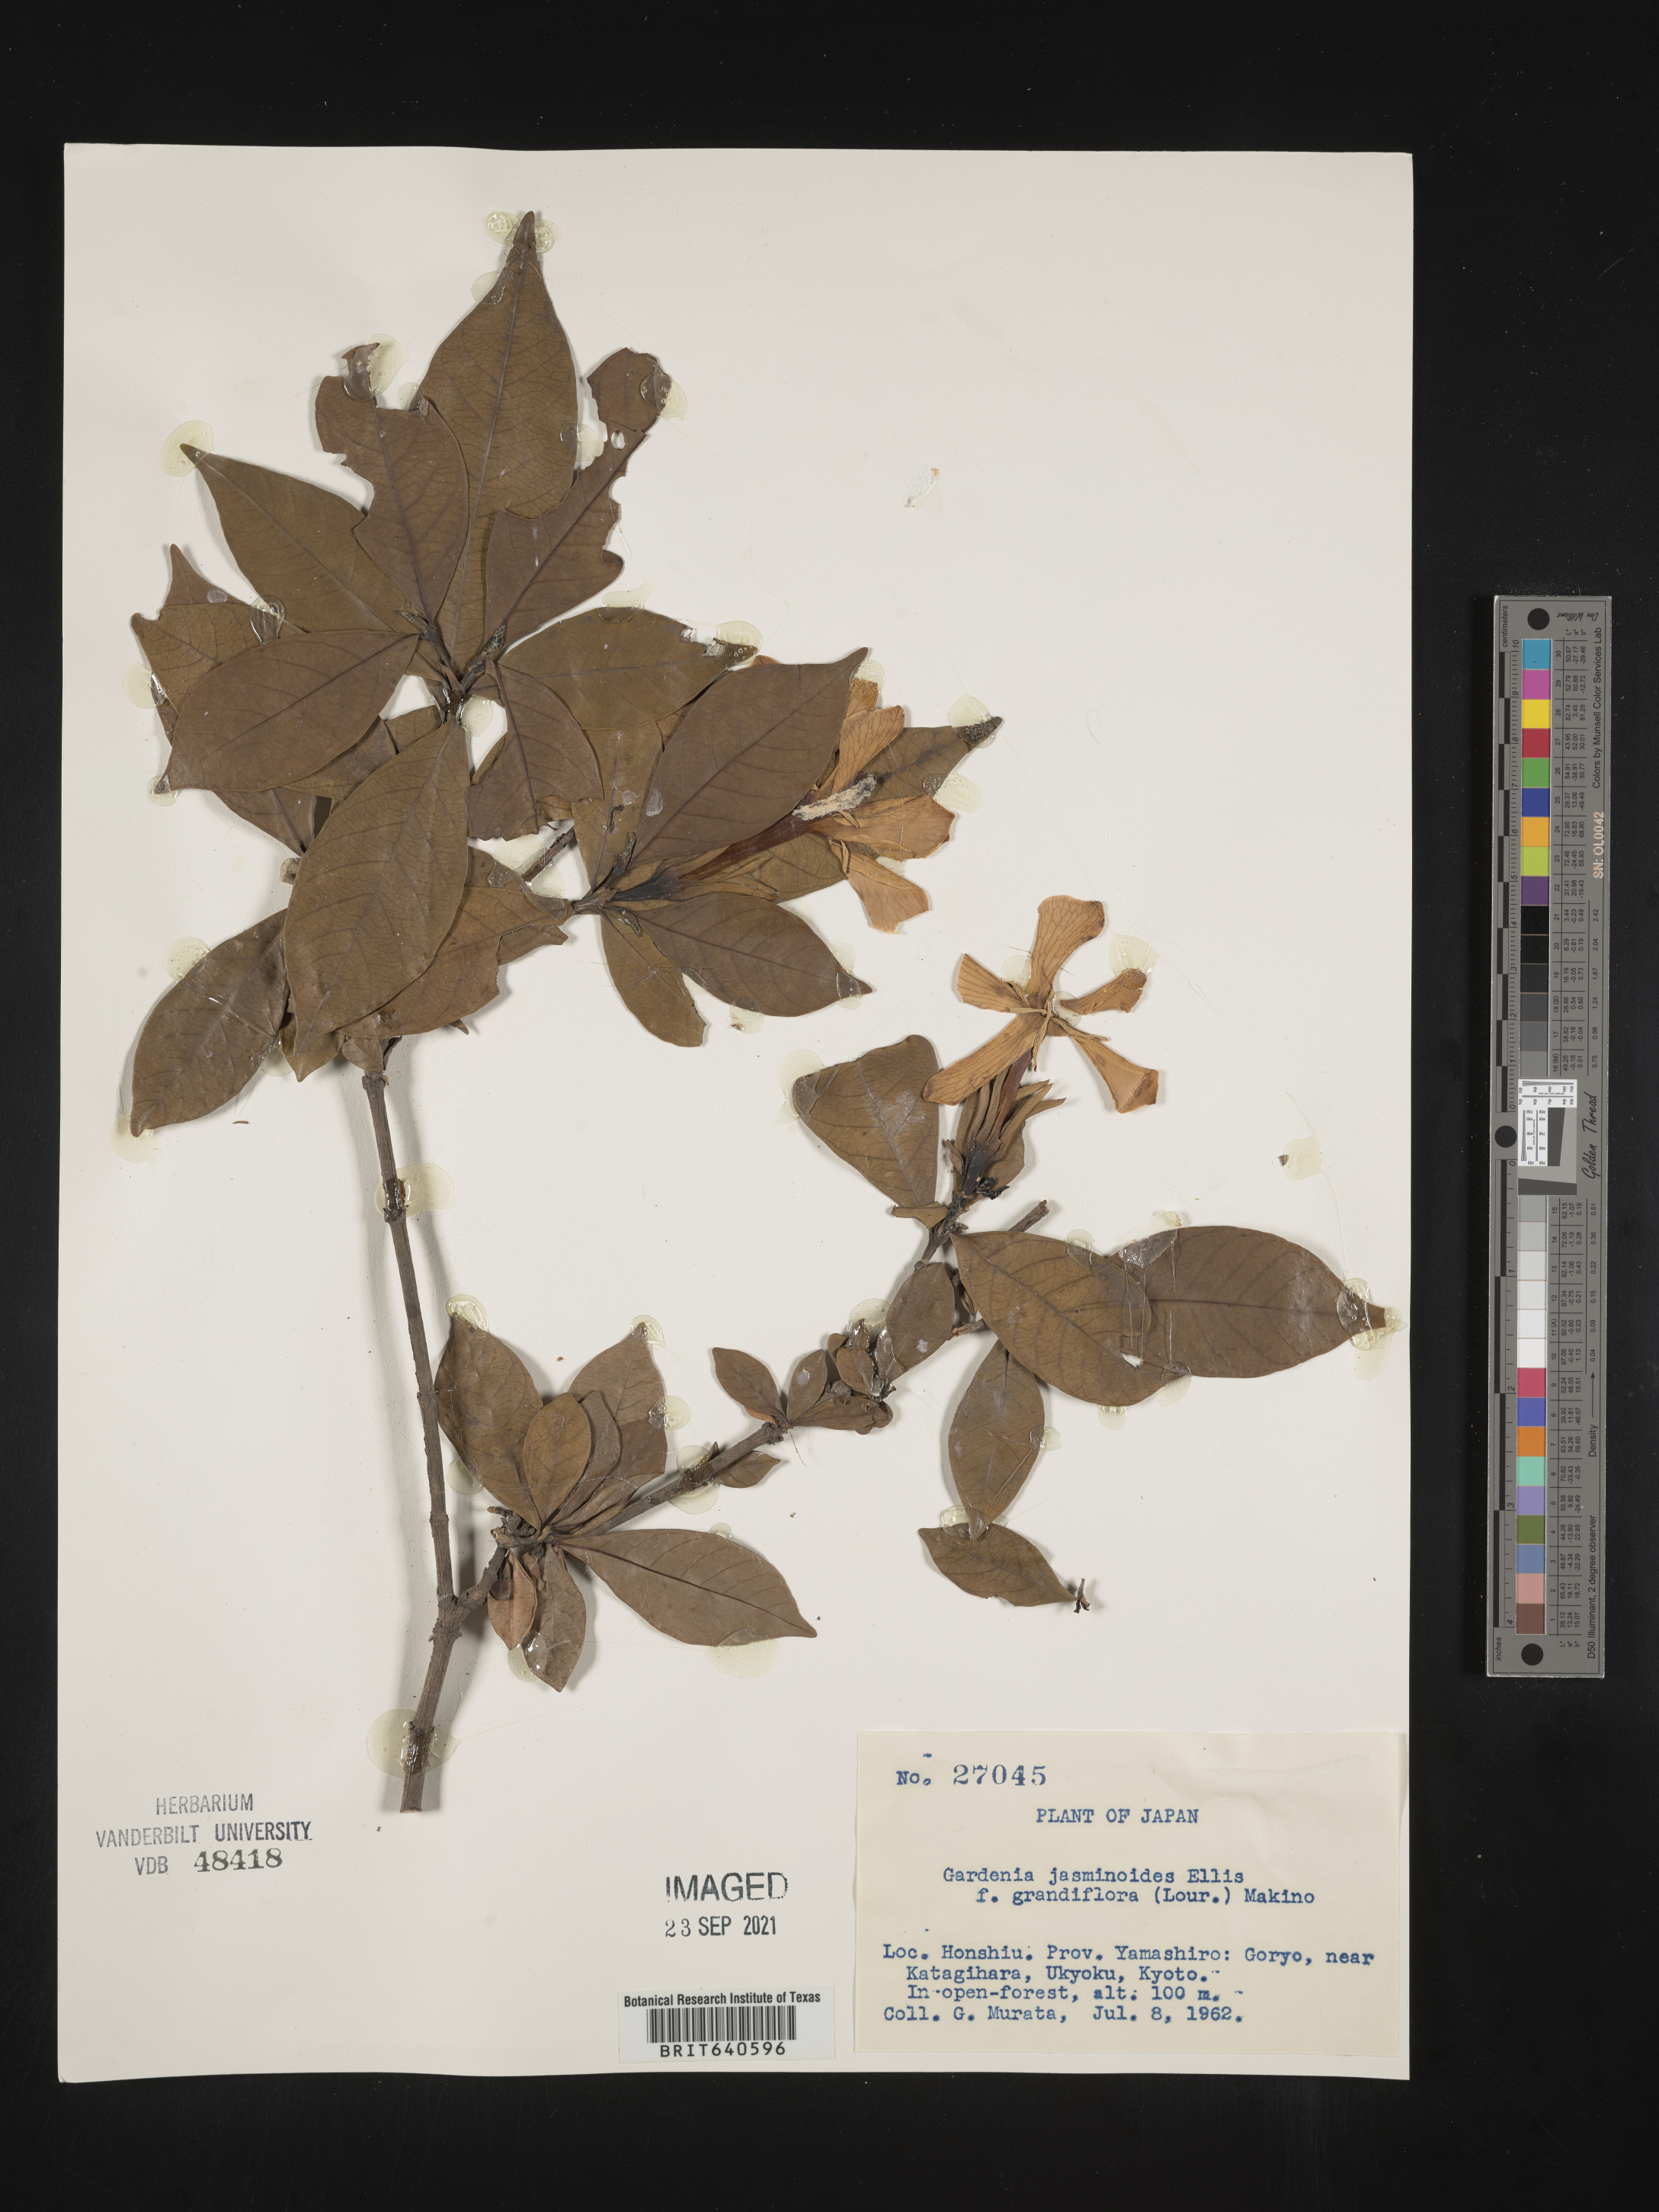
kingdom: Plantae
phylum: Tracheophyta
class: Magnoliopsida
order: Gentianales
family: Rubiaceae
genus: Gardenia
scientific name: Gardenia
